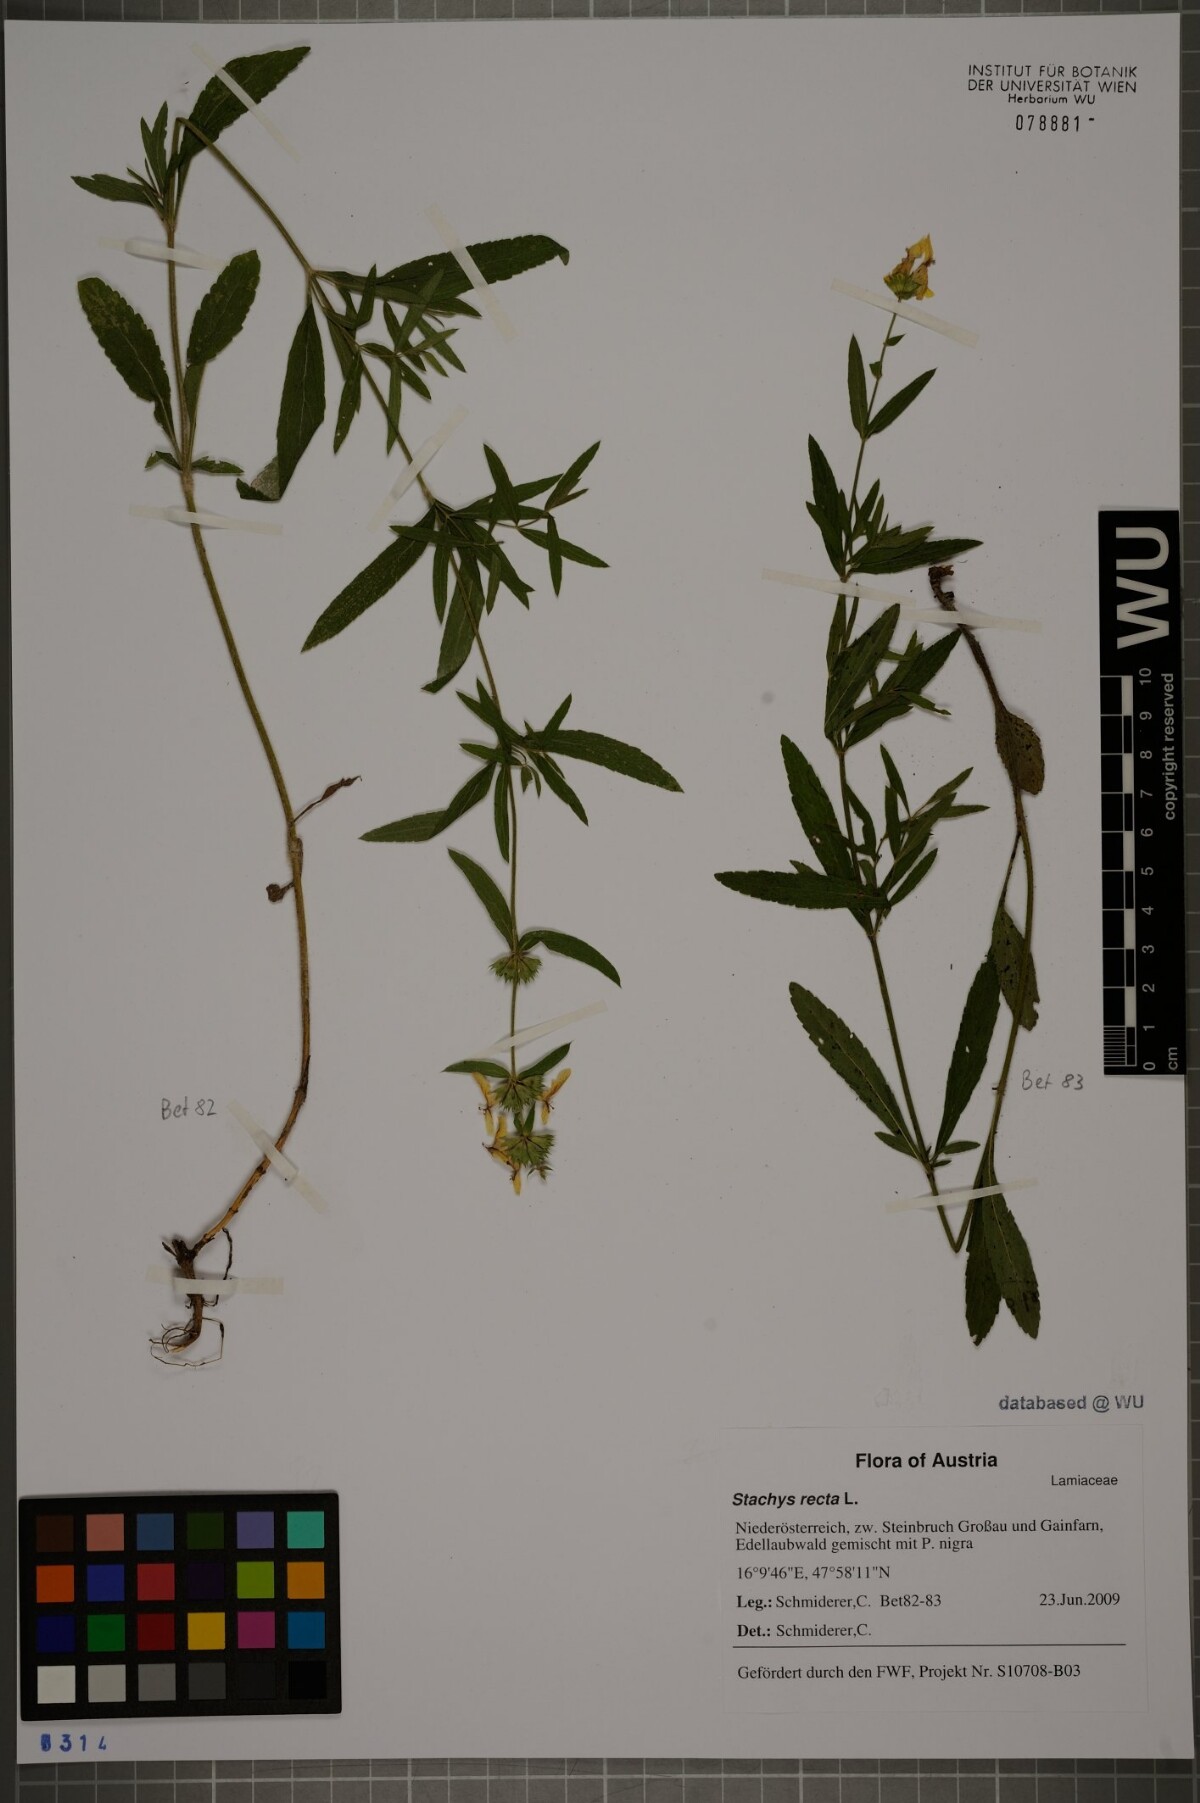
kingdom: Plantae
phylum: Tracheophyta
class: Magnoliopsida
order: Lamiales
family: Lamiaceae
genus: Stachys
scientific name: Stachys recta
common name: Perennial yellow-woundwort
